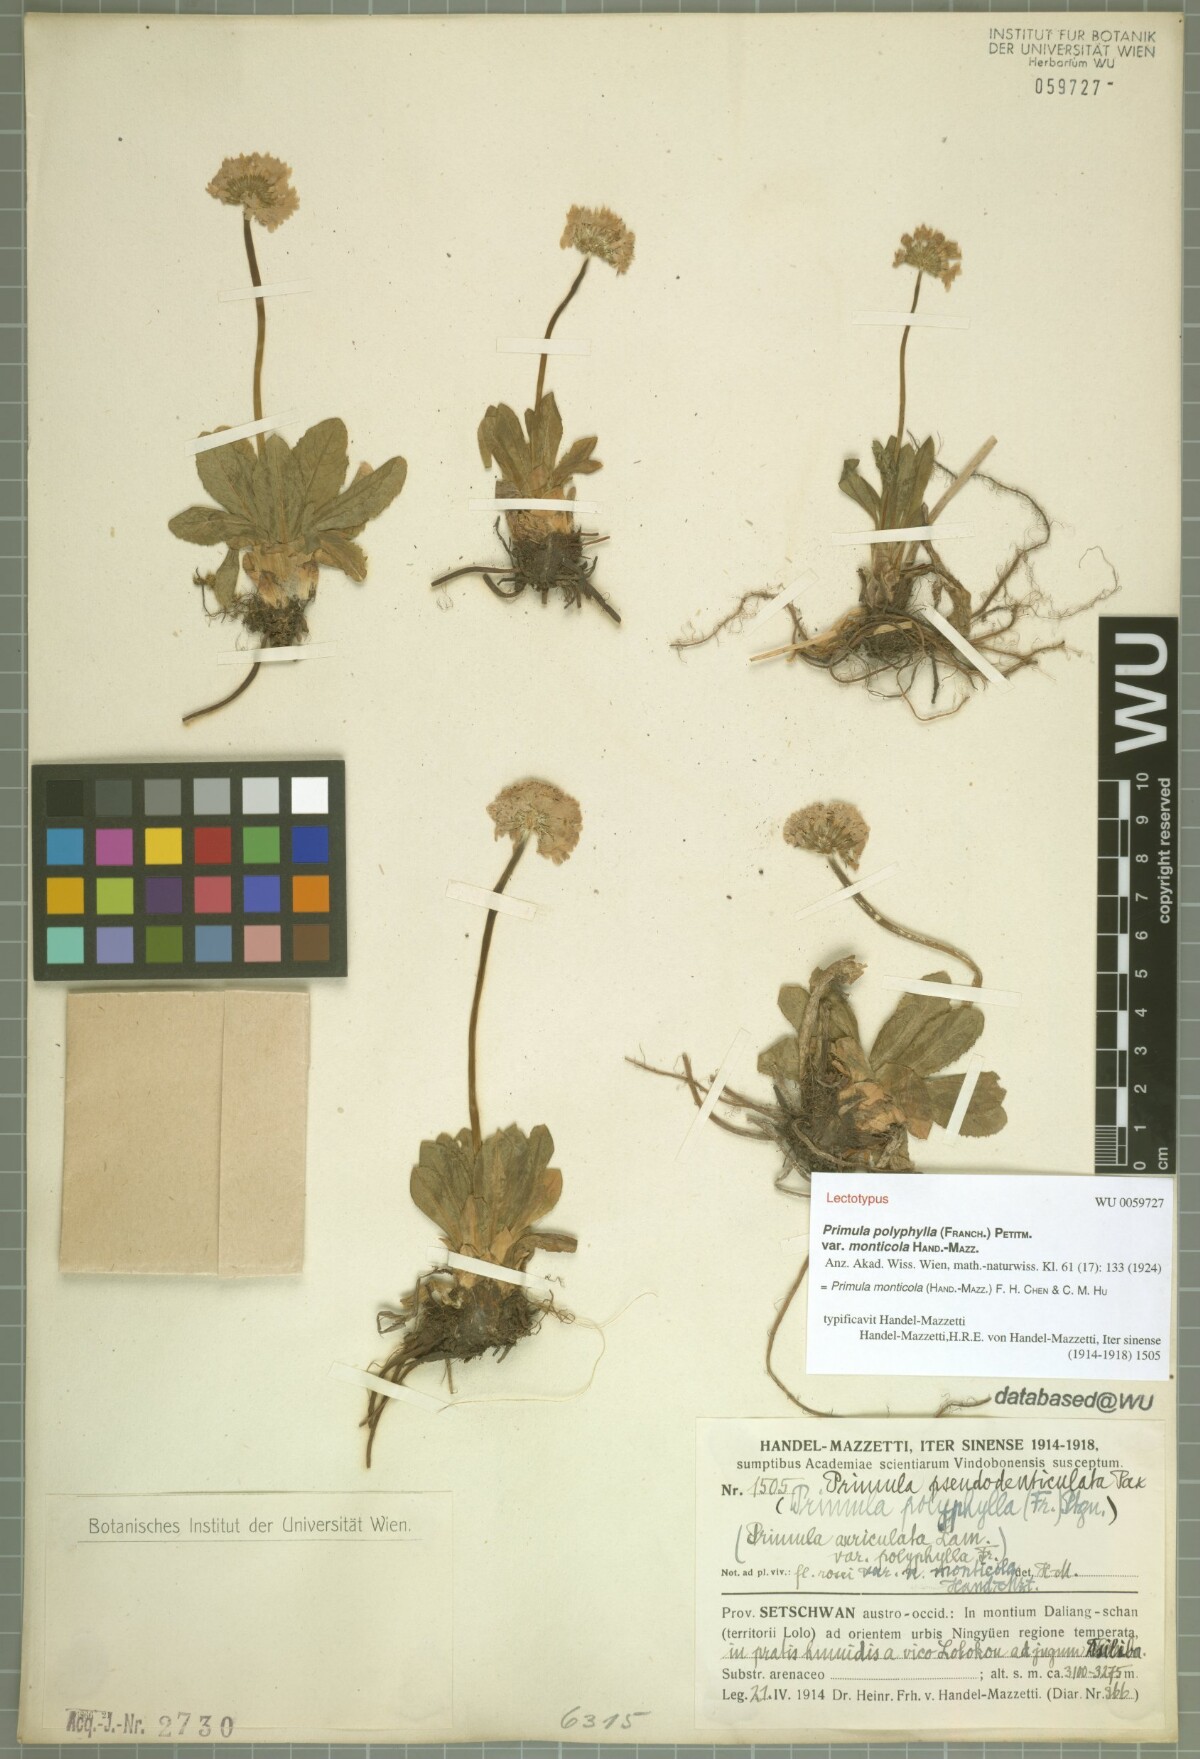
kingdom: Plantae
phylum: Tracheophyta
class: Magnoliopsida
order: Ericales
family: Primulaceae
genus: Primula
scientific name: Primula monticola
